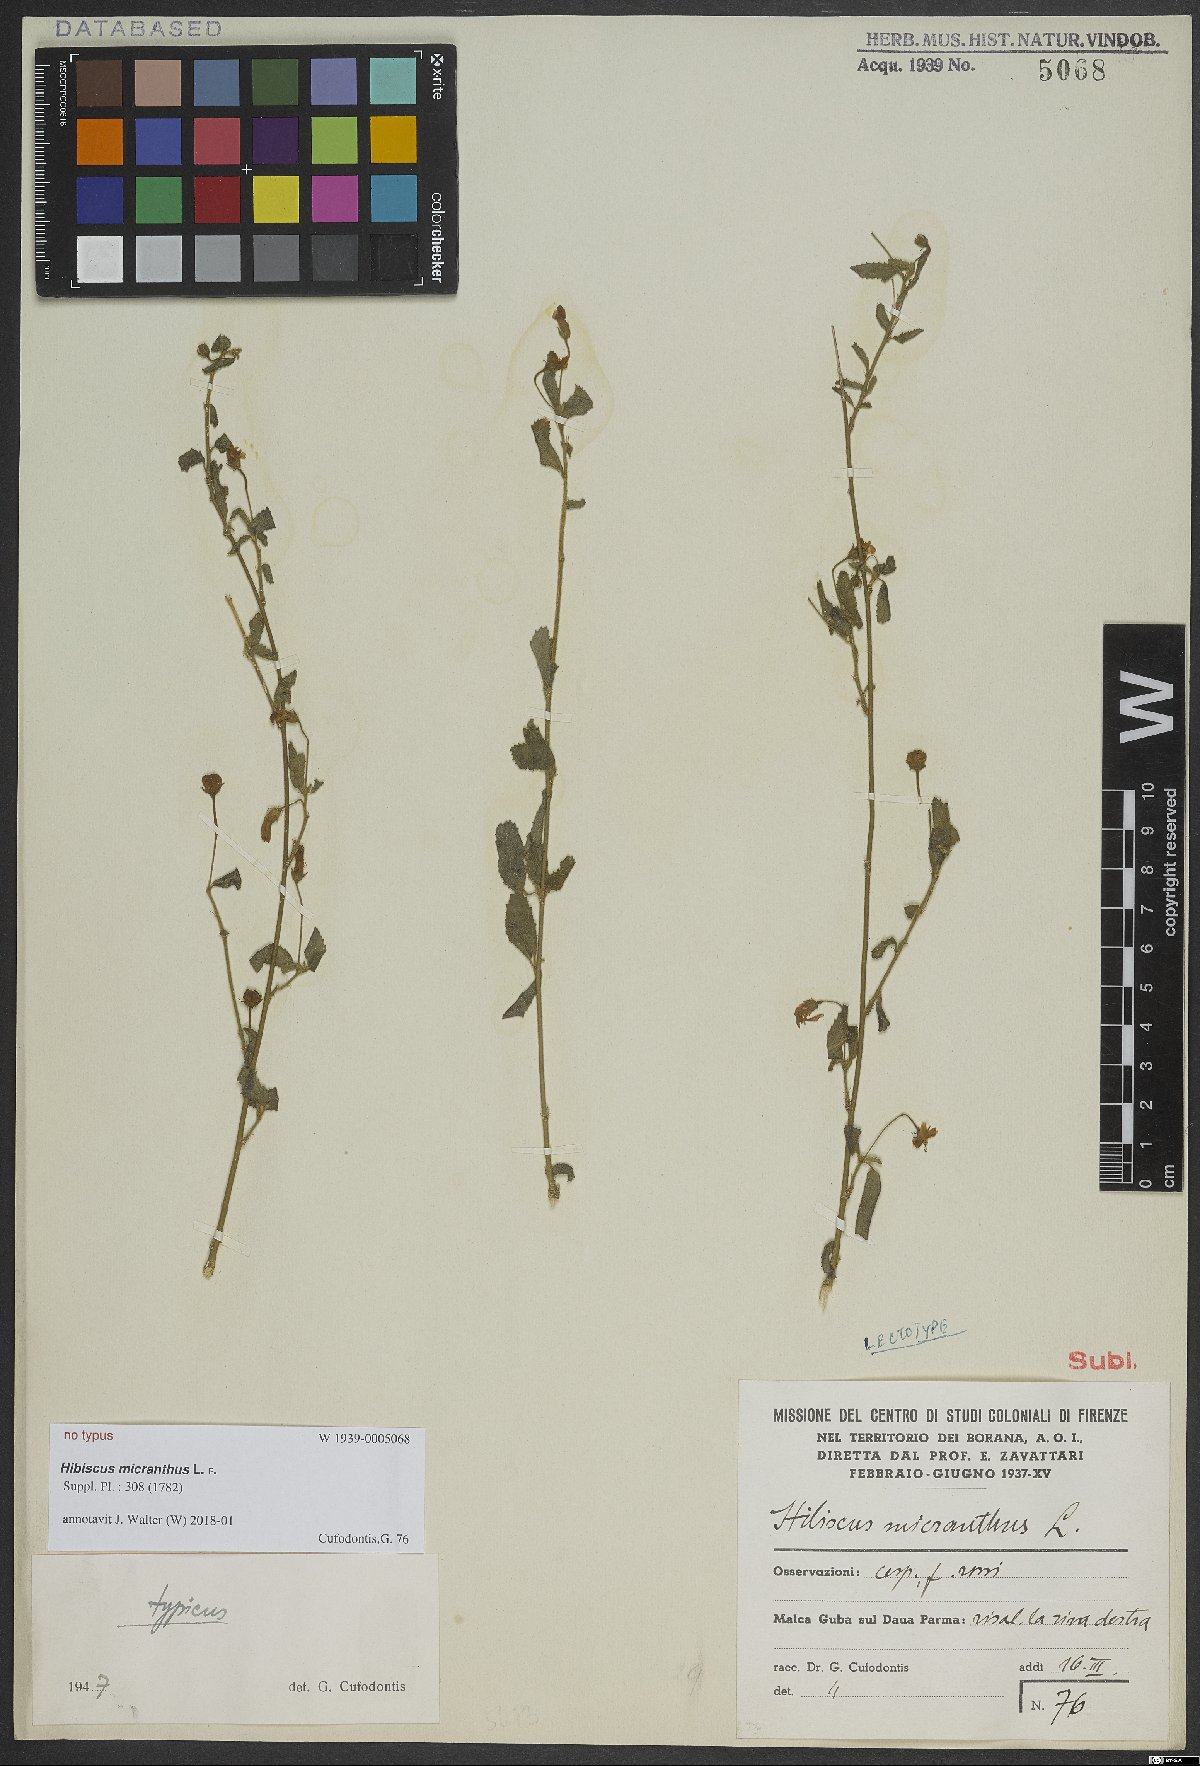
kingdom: Plantae
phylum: Tracheophyta
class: Magnoliopsida
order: Malvales
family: Malvaceae
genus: Hibiscus
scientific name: Hibiscus micranthus
